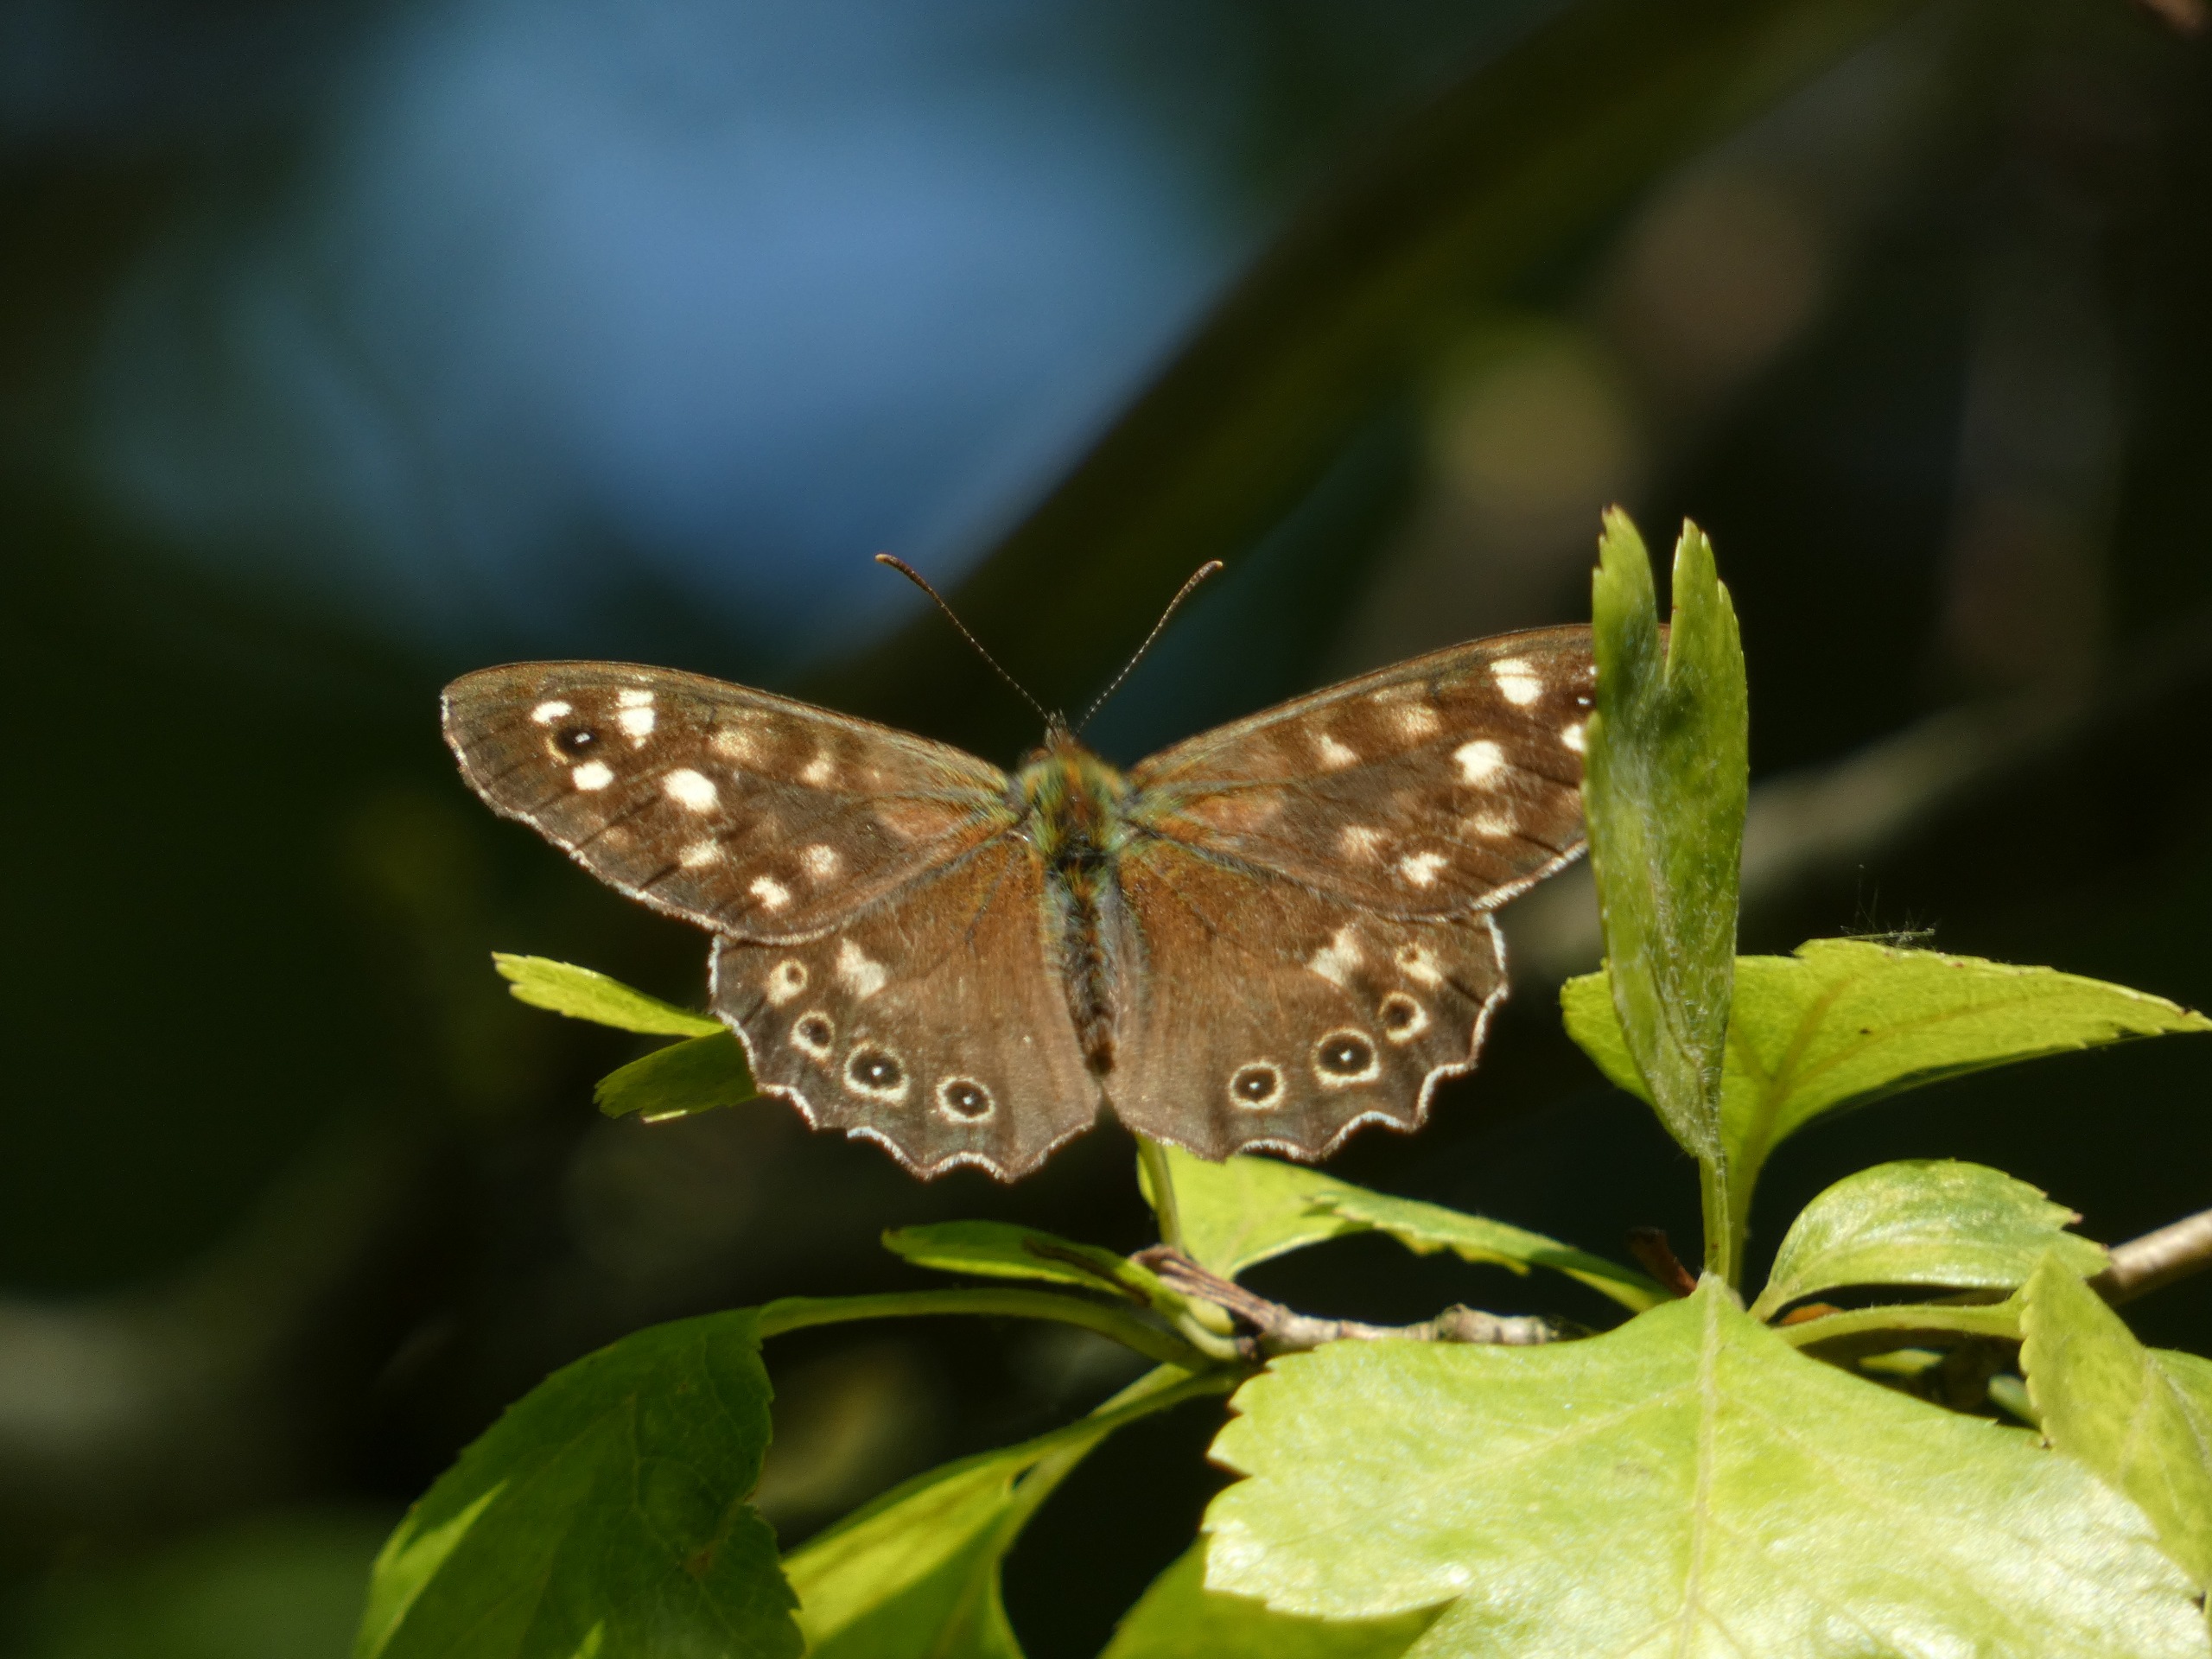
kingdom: Animalia
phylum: Arthropoda
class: Insecta
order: Lepidoptera
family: Nymphalidae
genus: Pararge
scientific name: Pararge aegeria
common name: Skovrandøje
